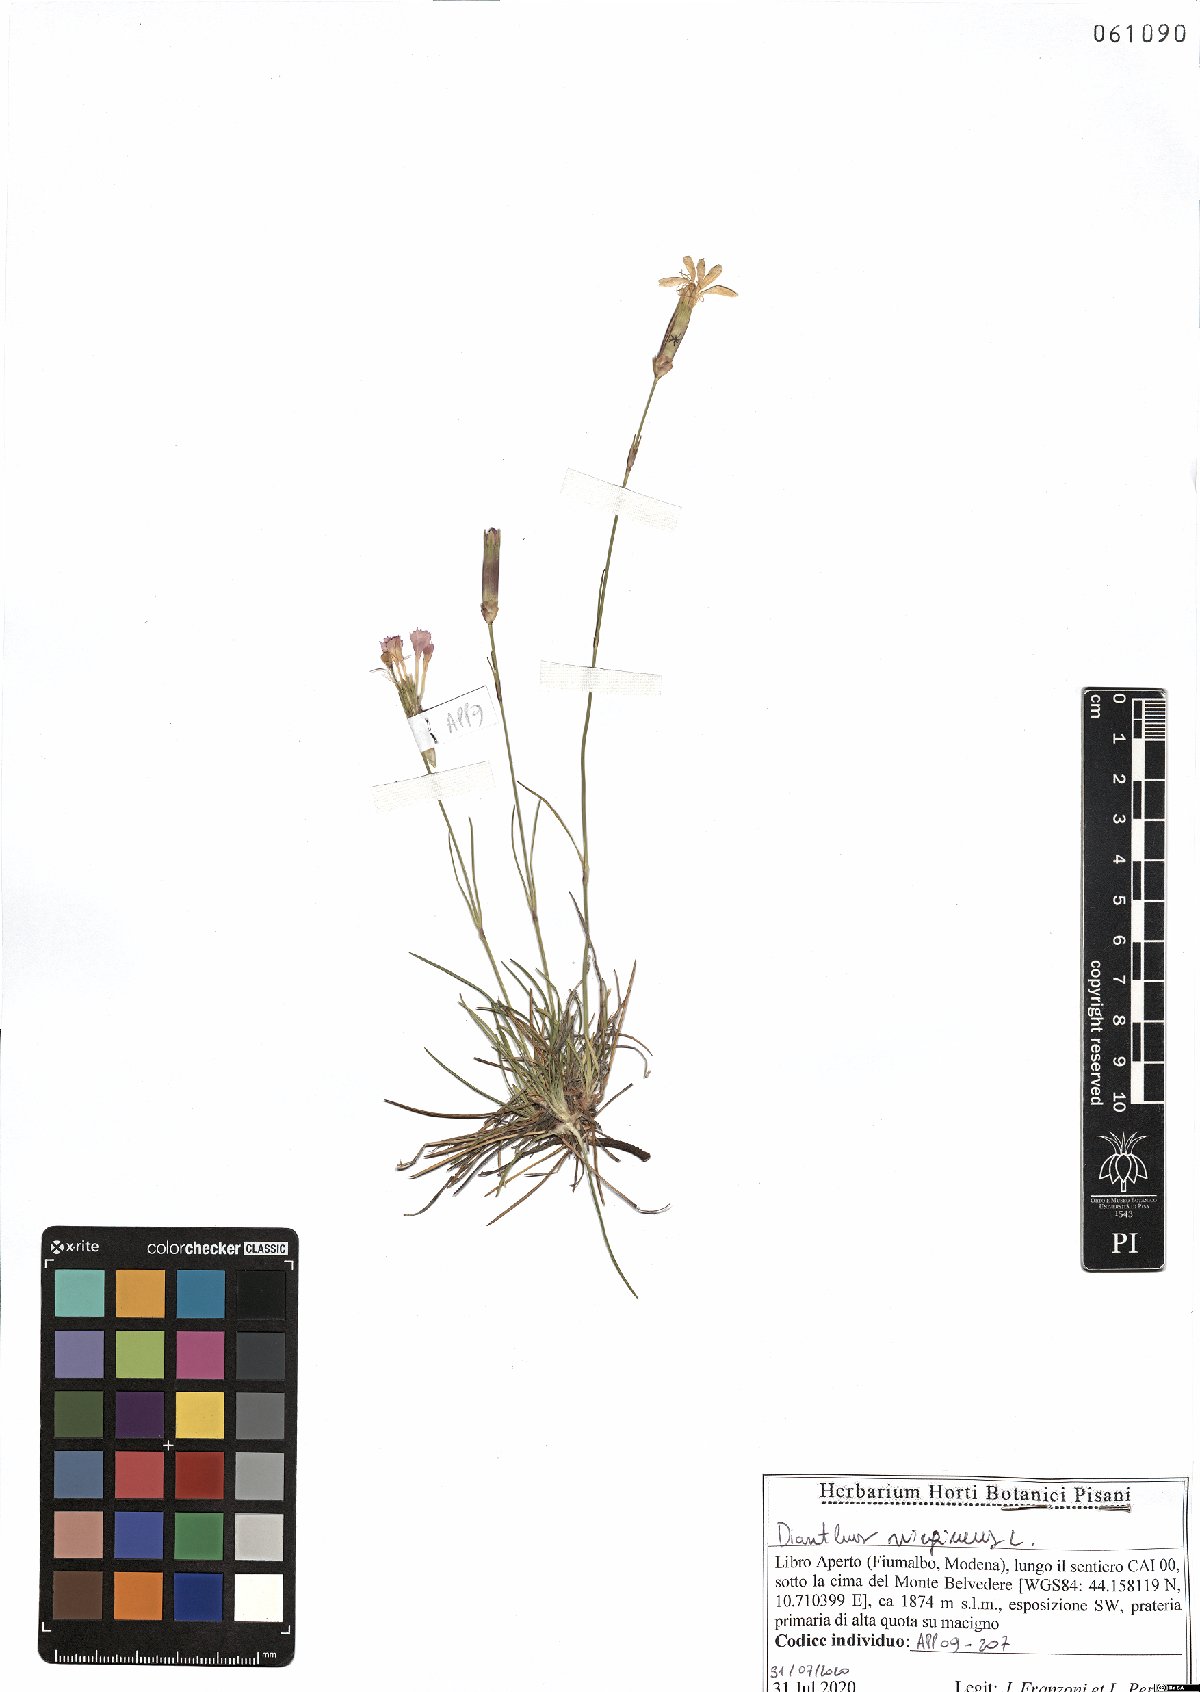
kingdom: Plantae
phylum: Tracheophyta
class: Magnoliopsida
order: Caryophyllales
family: Caryophyllaceae
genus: Dianthus
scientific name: Dianthus virgineus
